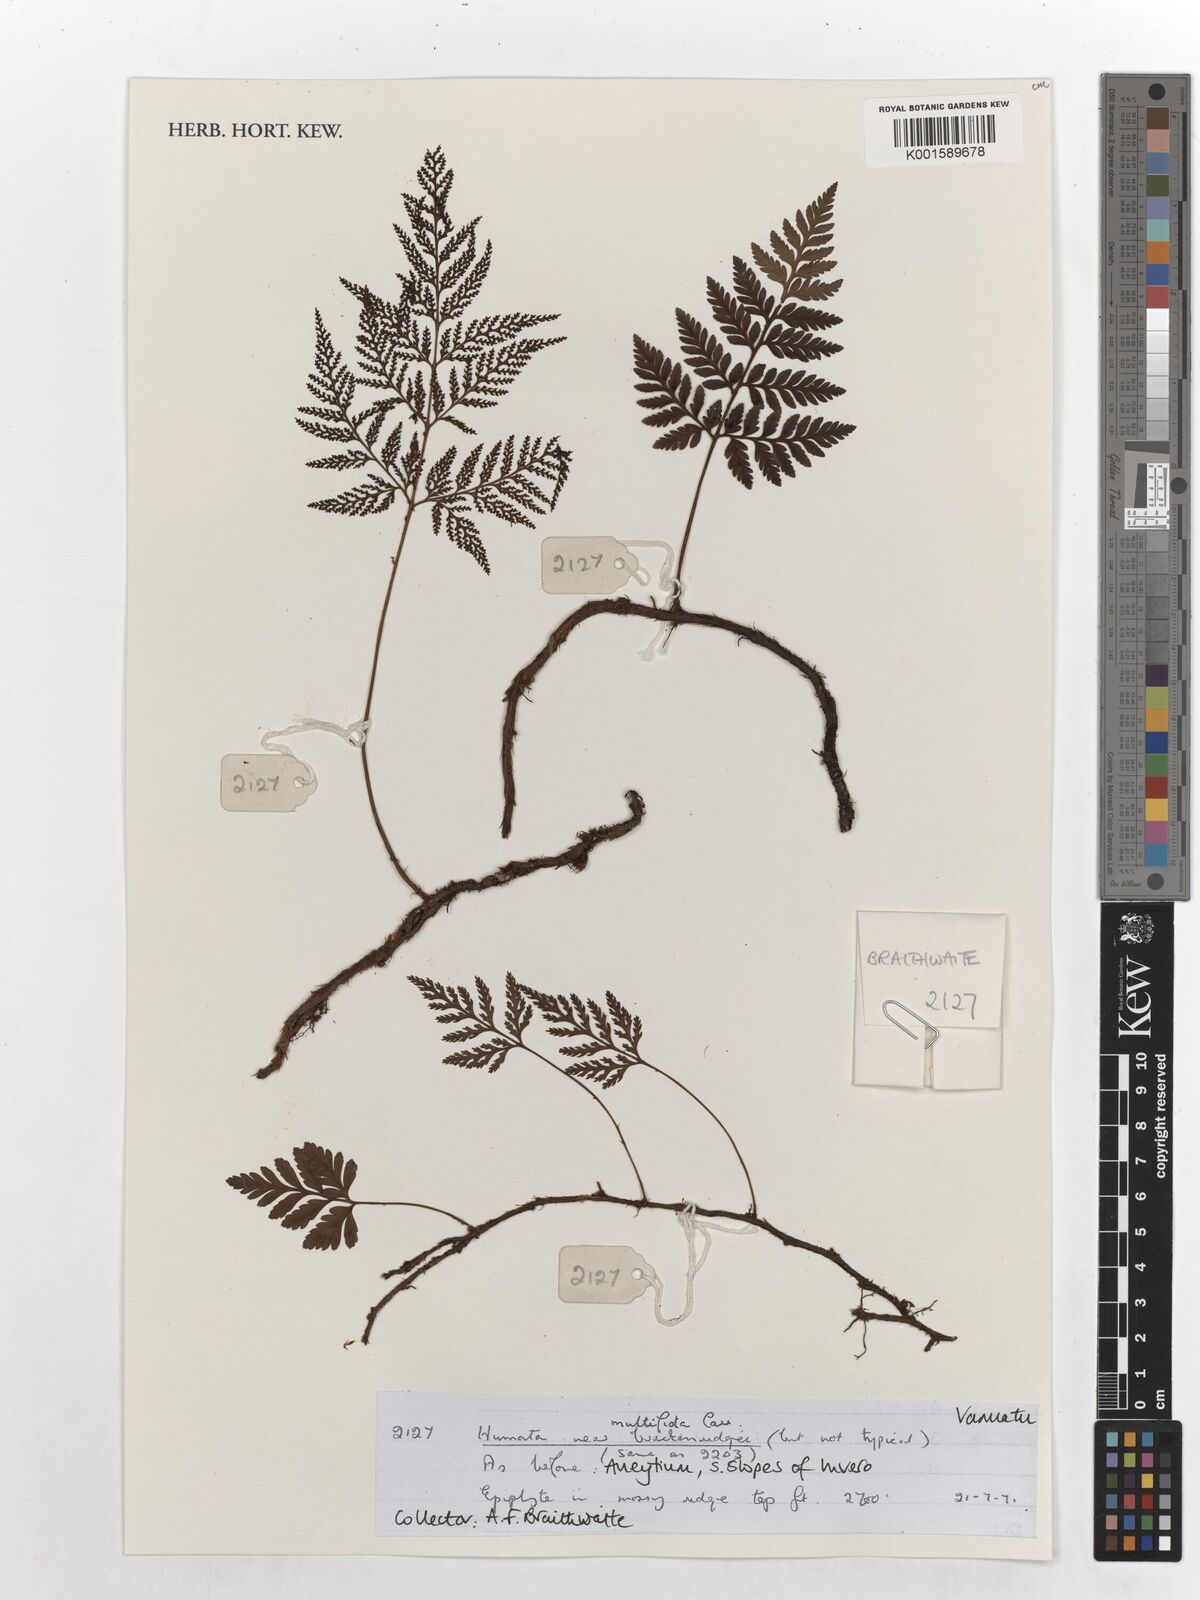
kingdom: Plantae
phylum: Tracheophyta
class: Polypodiopsida
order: Polypodiales
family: Davalliaceae
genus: Davallia
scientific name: Davallia cumingii
